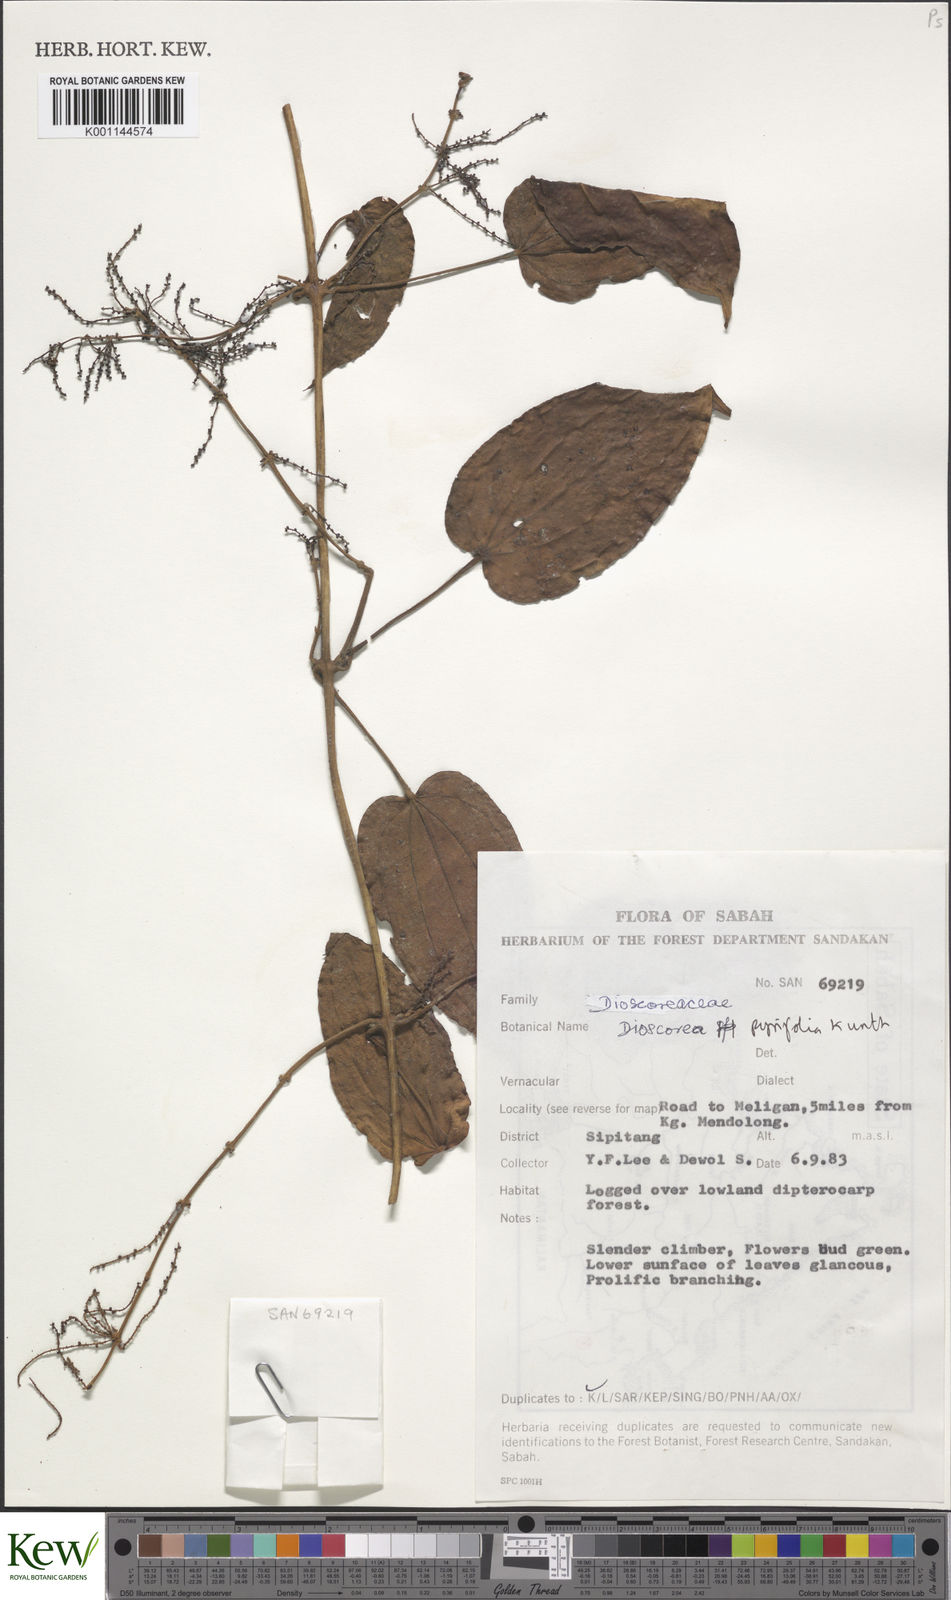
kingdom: Plantae
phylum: Tracheophyta
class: Liliopsida
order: Dioscoreales
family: Dioscoreaceae
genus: Dioscorea
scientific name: Dioscorea pyrifolia
